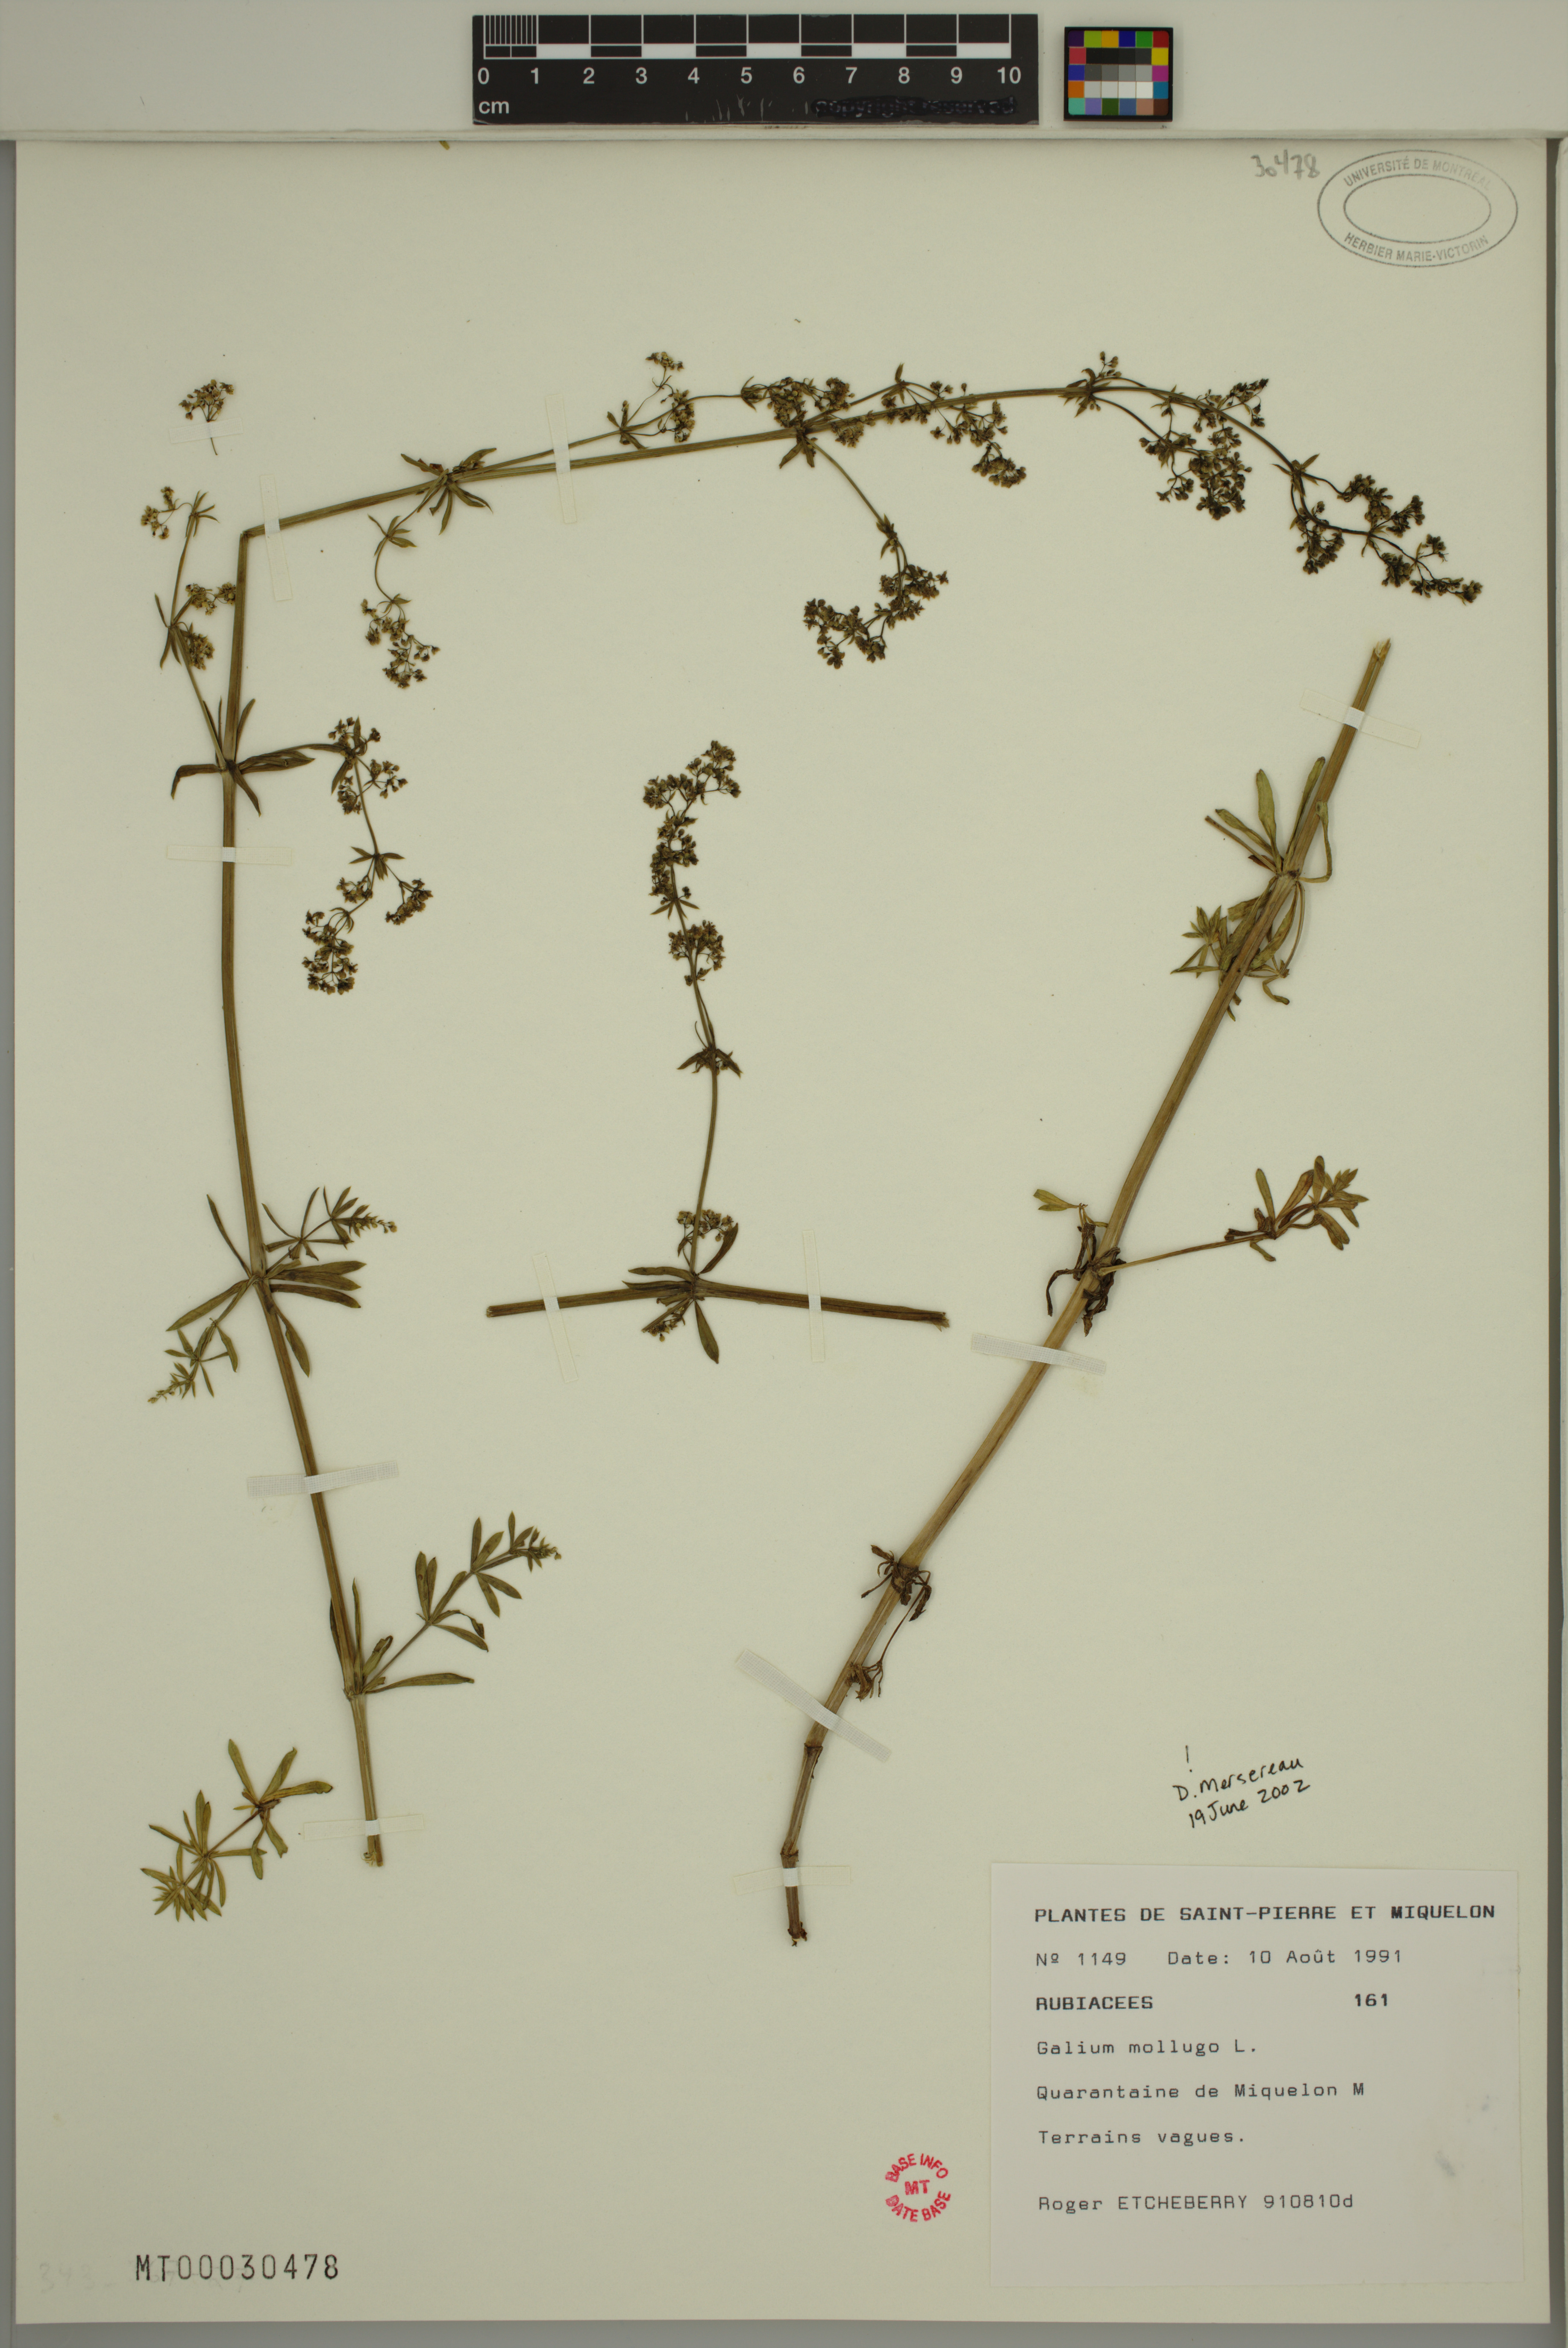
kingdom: Plantae
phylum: Tracheophyta
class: Magnoliopsida
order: Gentianales
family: Rubiaceae
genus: Galium
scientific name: Galium mollugo
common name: Hedge bedstraw
